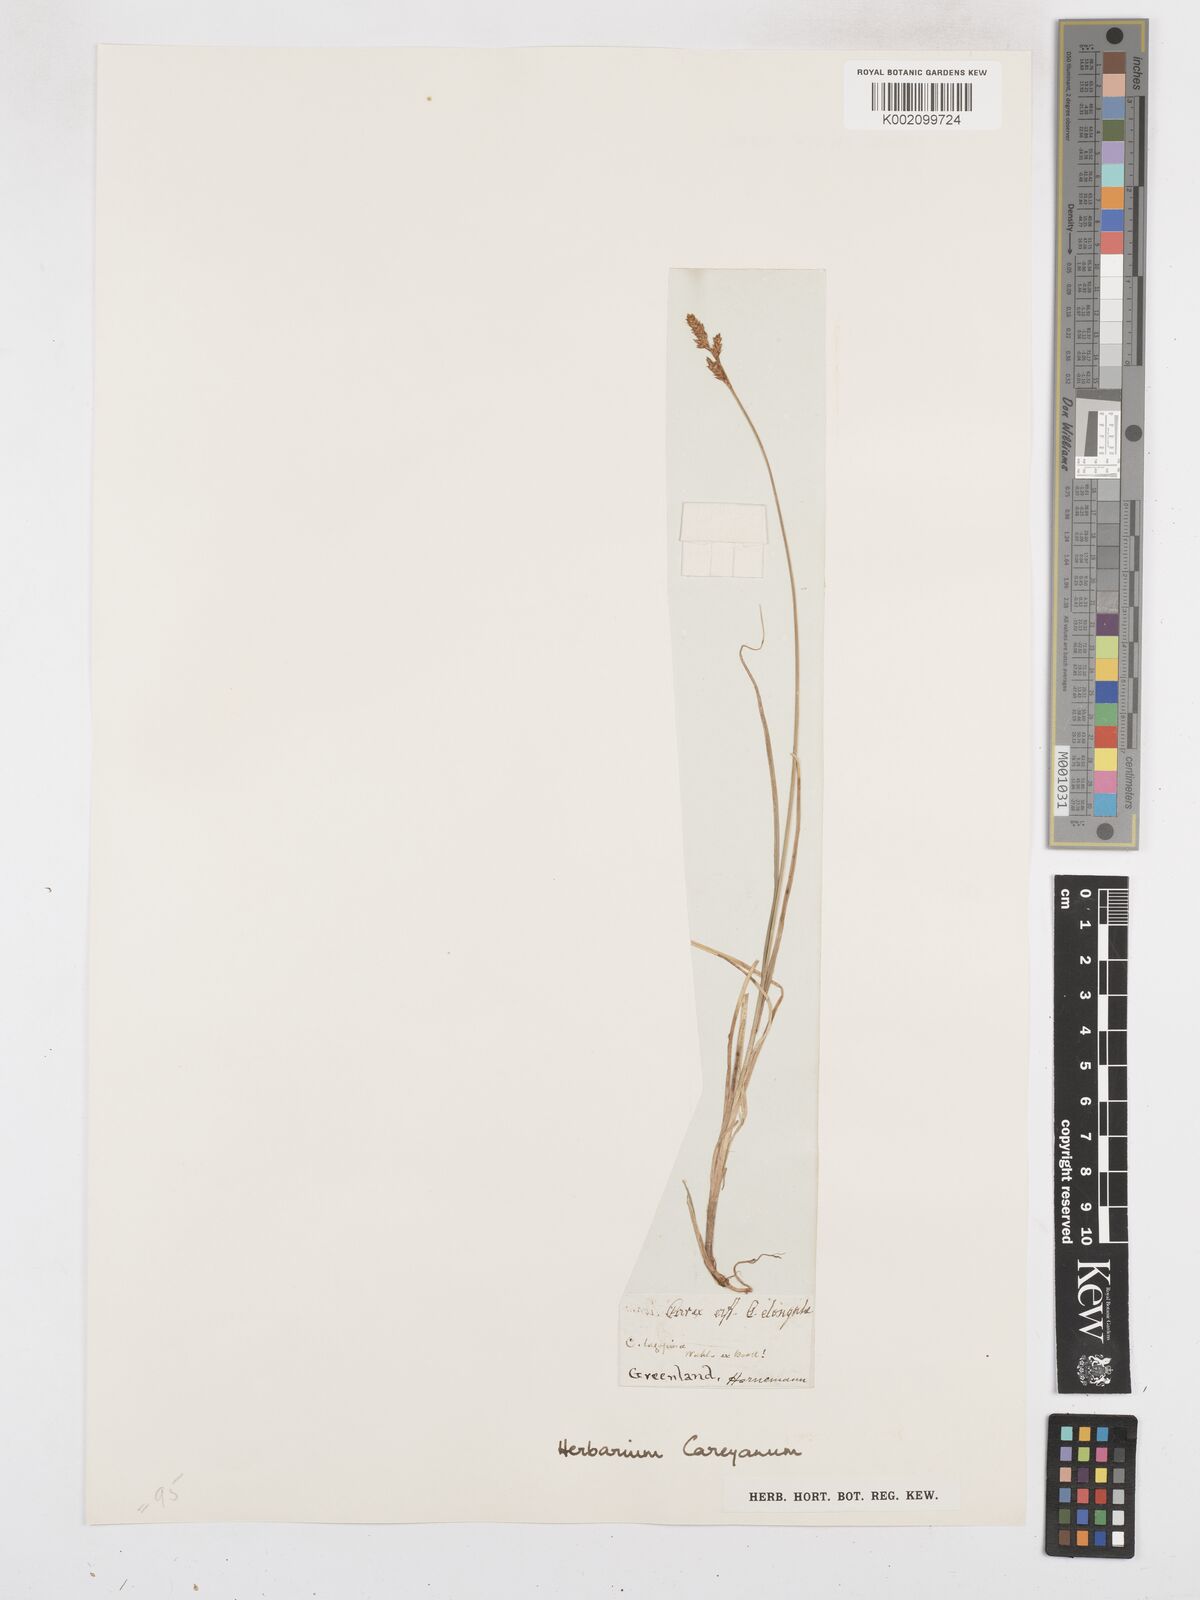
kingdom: Plantae
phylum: Tracheophyta
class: Liliopsida
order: Poales
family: Cyperaceae
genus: Carex
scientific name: Carex praeceptorum
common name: Early sedge
